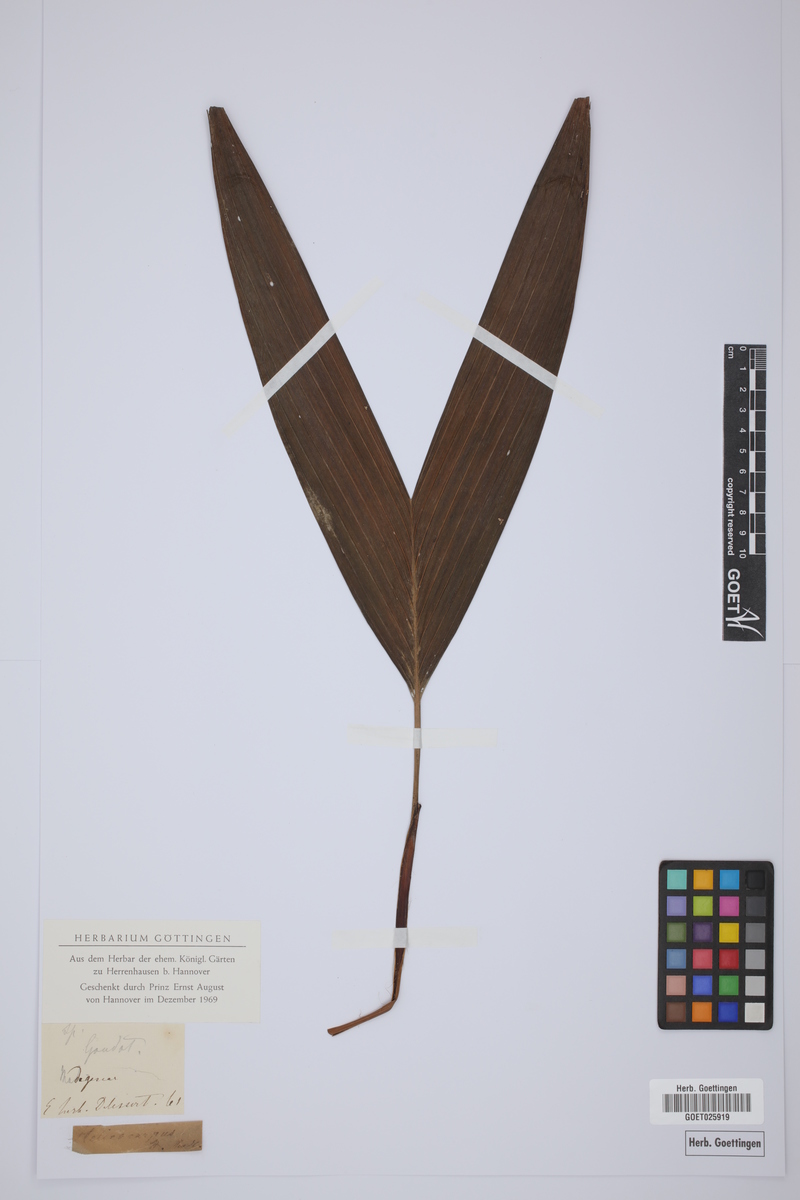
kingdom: Plantae
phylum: Tracheophyta
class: Liliopsida
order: Arecales
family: Arecaceae
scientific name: Arecaceae
